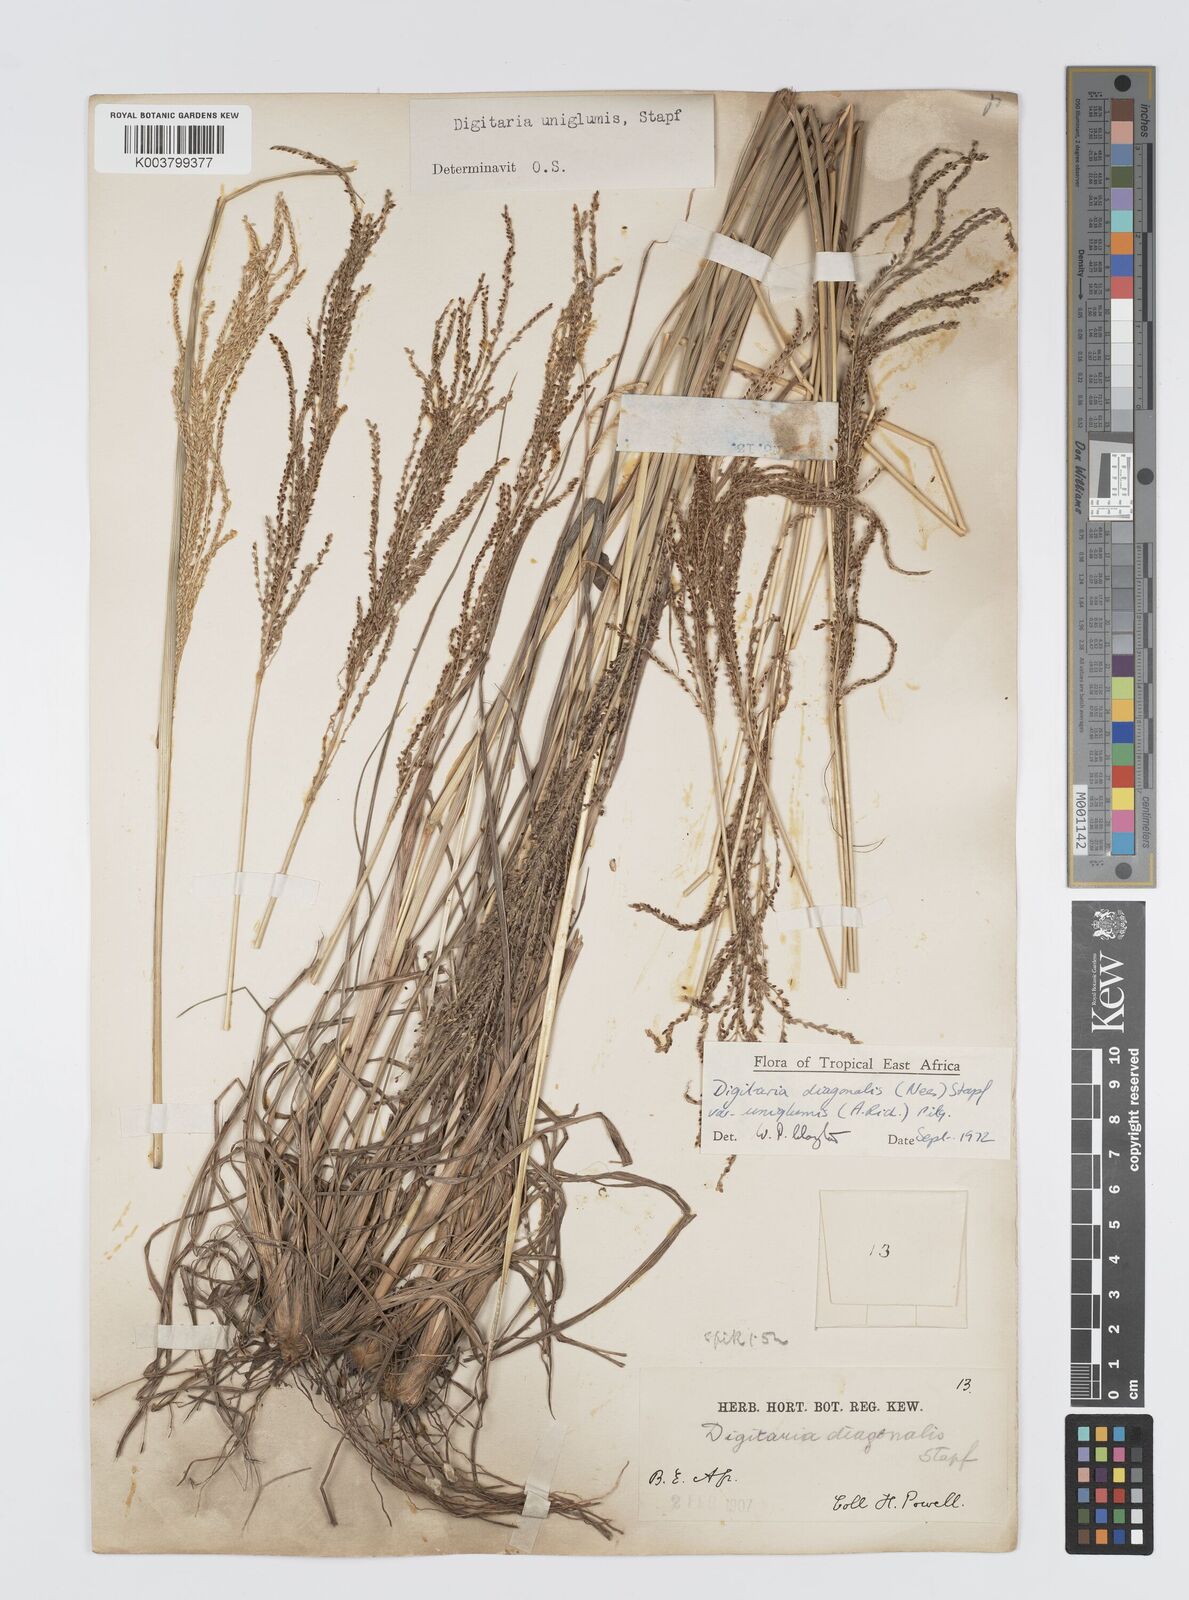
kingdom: Plantae
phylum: Tracheophyta
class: Liliopsida
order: Poales
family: Poaceae
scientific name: Poaceae
